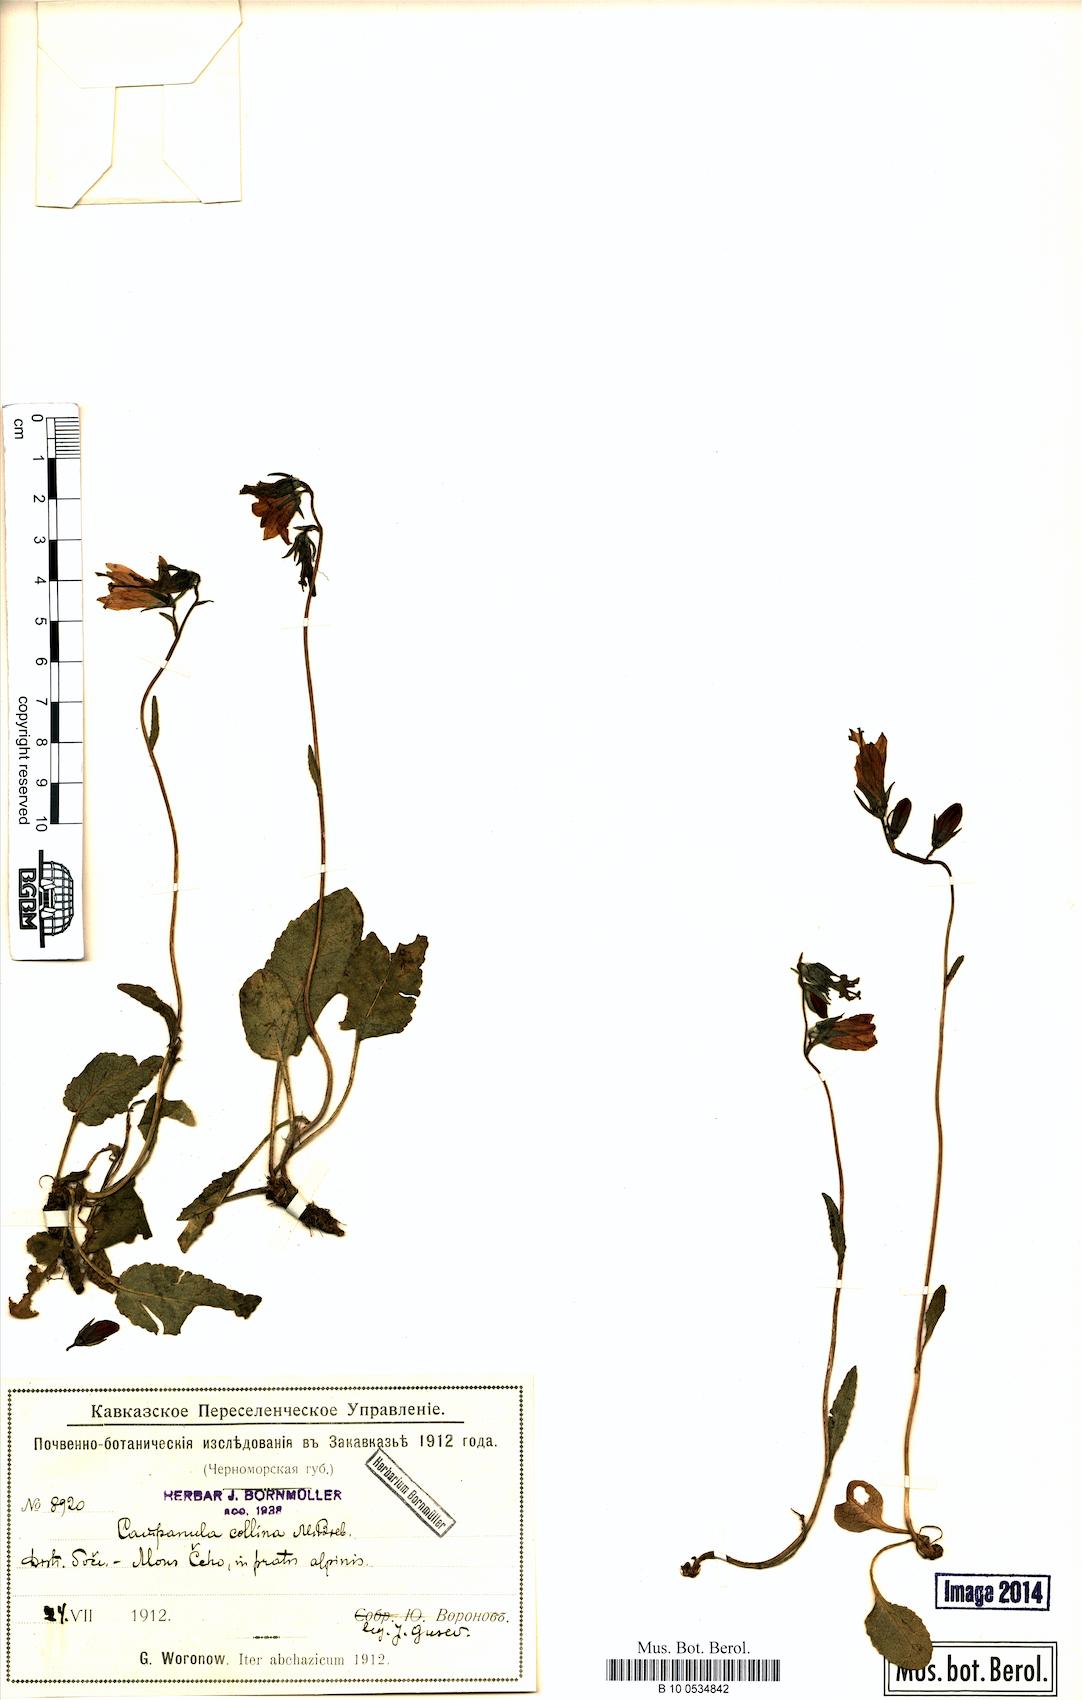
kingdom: Plantae
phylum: Tracheophyta
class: Magnoliopsida
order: Asterales
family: Campanulaceae
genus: Campanula
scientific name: Campanula collina
